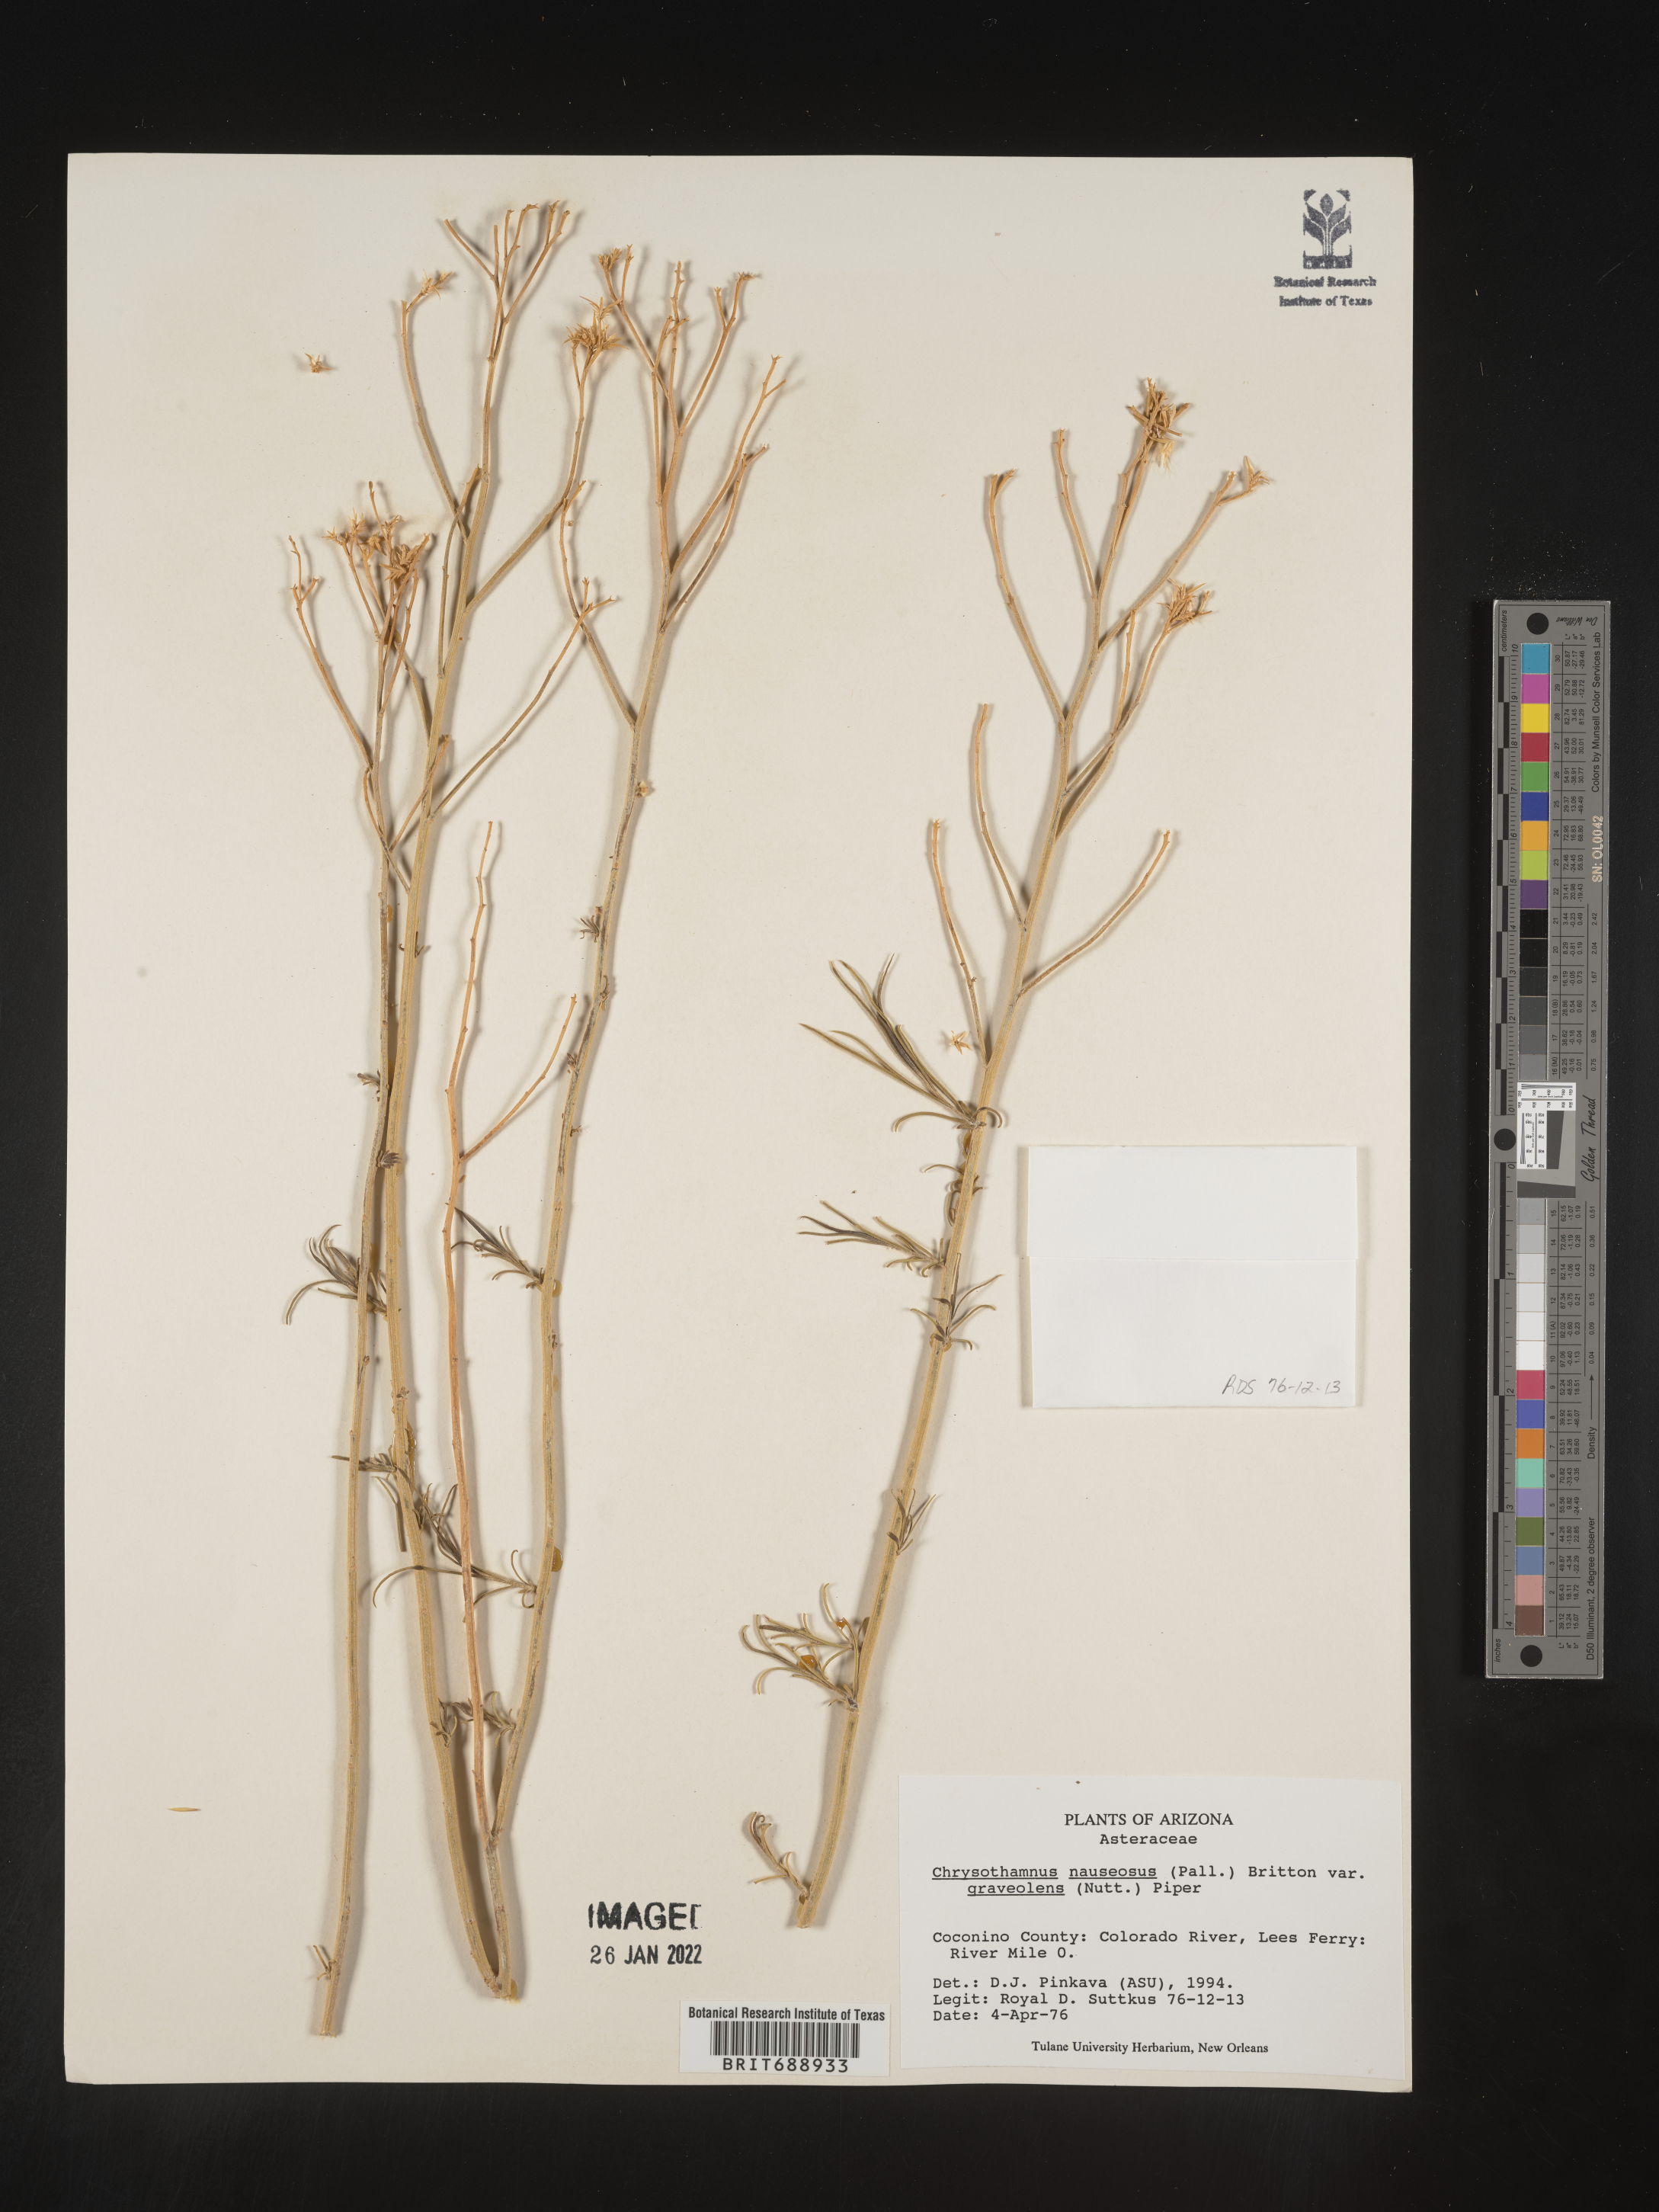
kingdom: Plantae
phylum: Tracheophyta
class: Magnoliopsida
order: Asterales
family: Asteraceae
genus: Ericameria
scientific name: Ericameria nauseosa
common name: Rubber rabbitbrush
